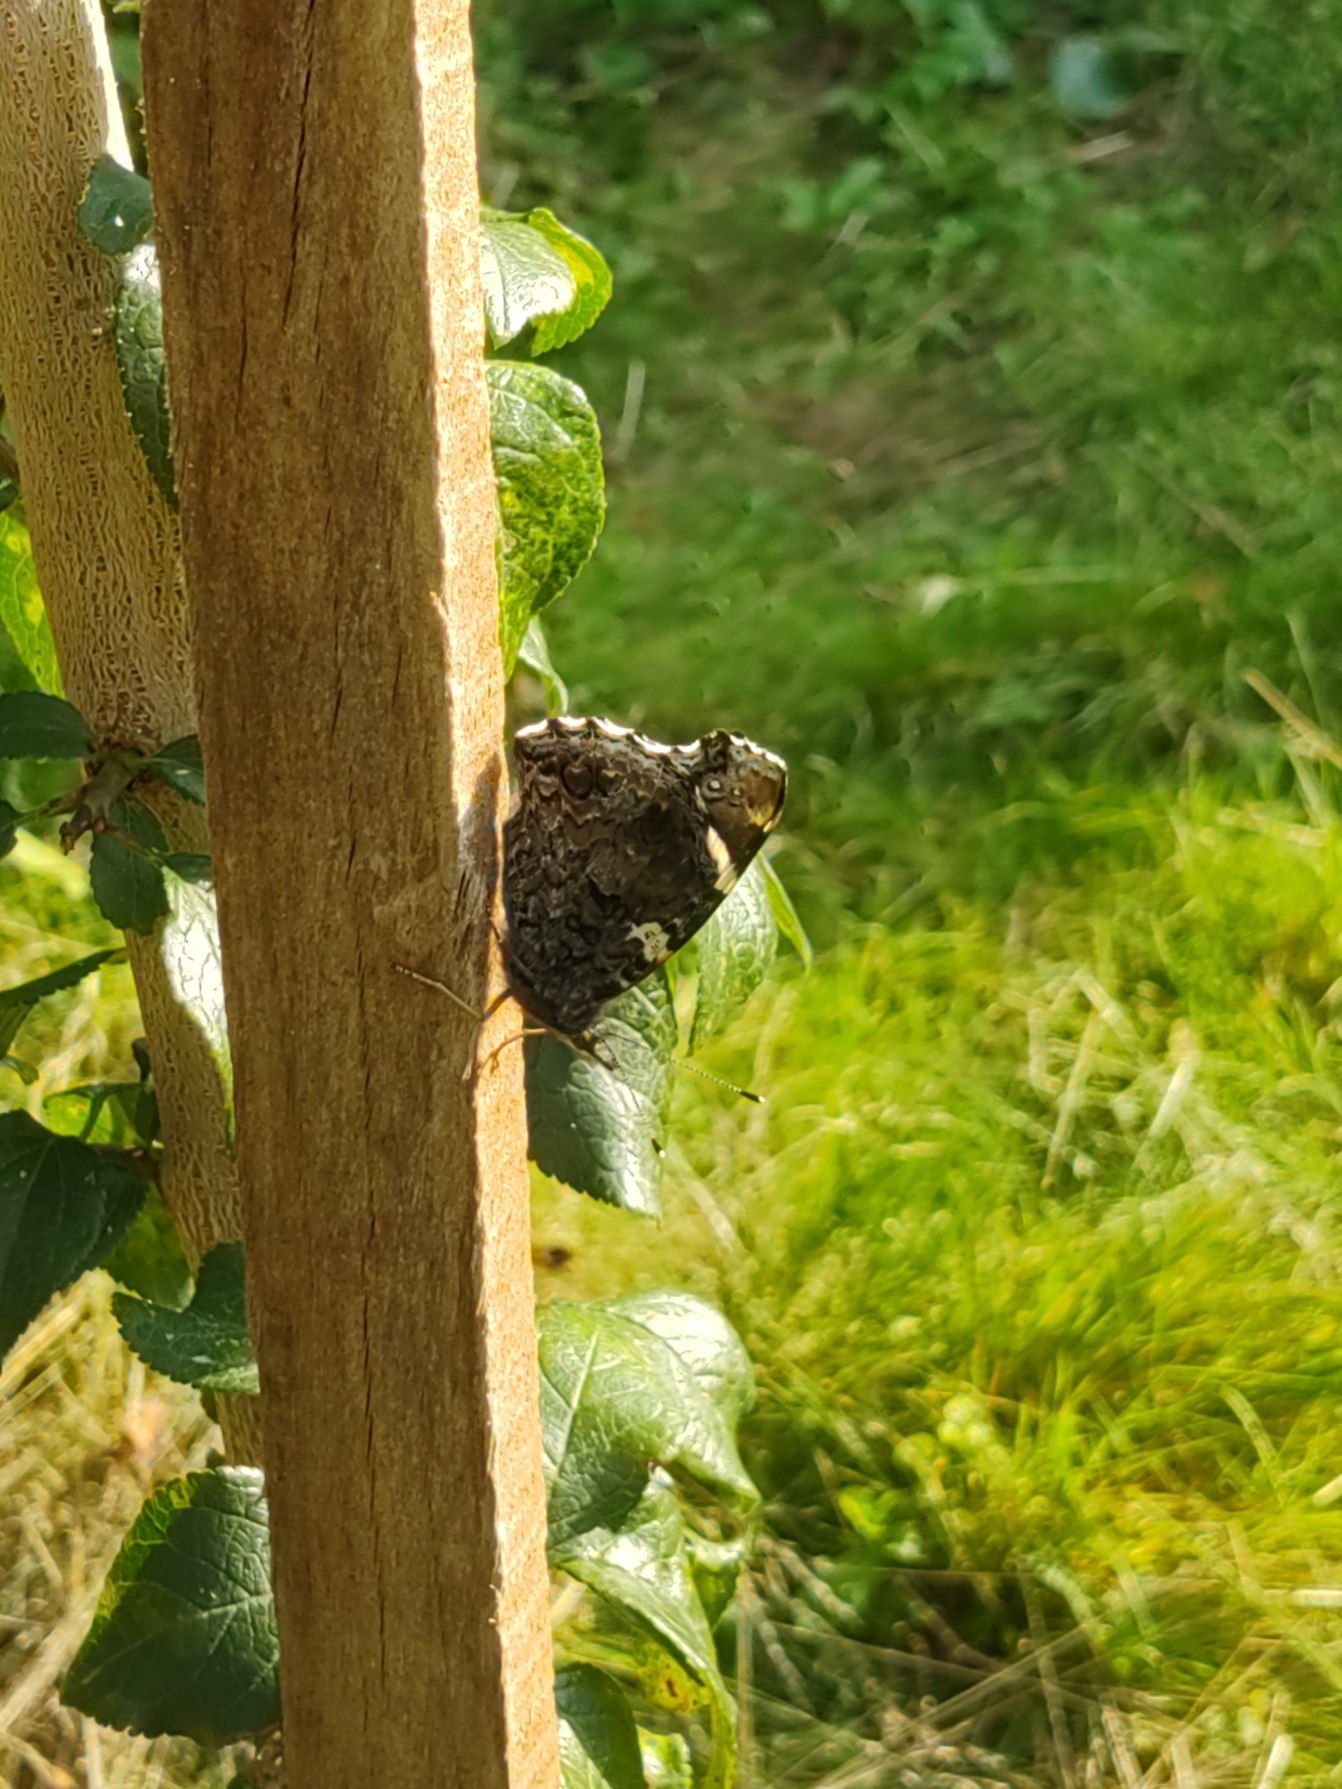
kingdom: Animalia
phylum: Arthropoda
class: Insecta
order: Lepidoptera
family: Nymphalidae
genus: Vanessa
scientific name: Vanessa atalanta
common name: Admiral
